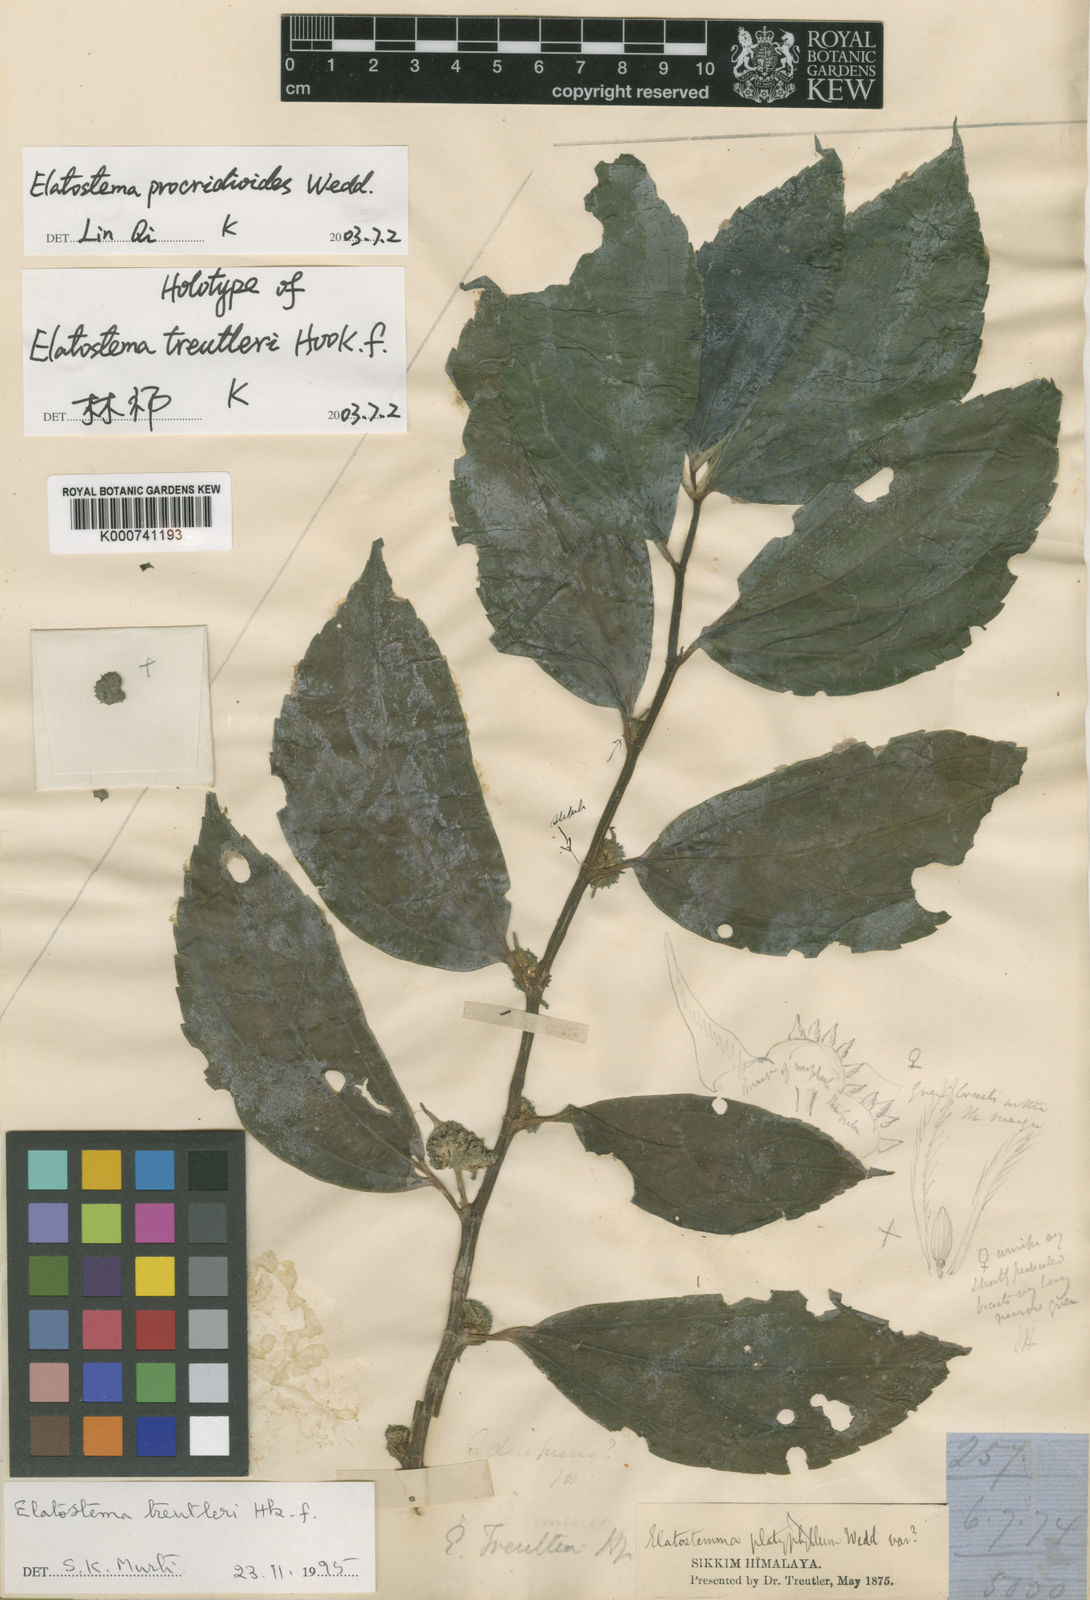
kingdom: Plantae
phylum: Tracheophyta
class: Magnoliopsida
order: Rosales
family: Urticaceae
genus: Elatostema
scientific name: Elatostema procridioides
